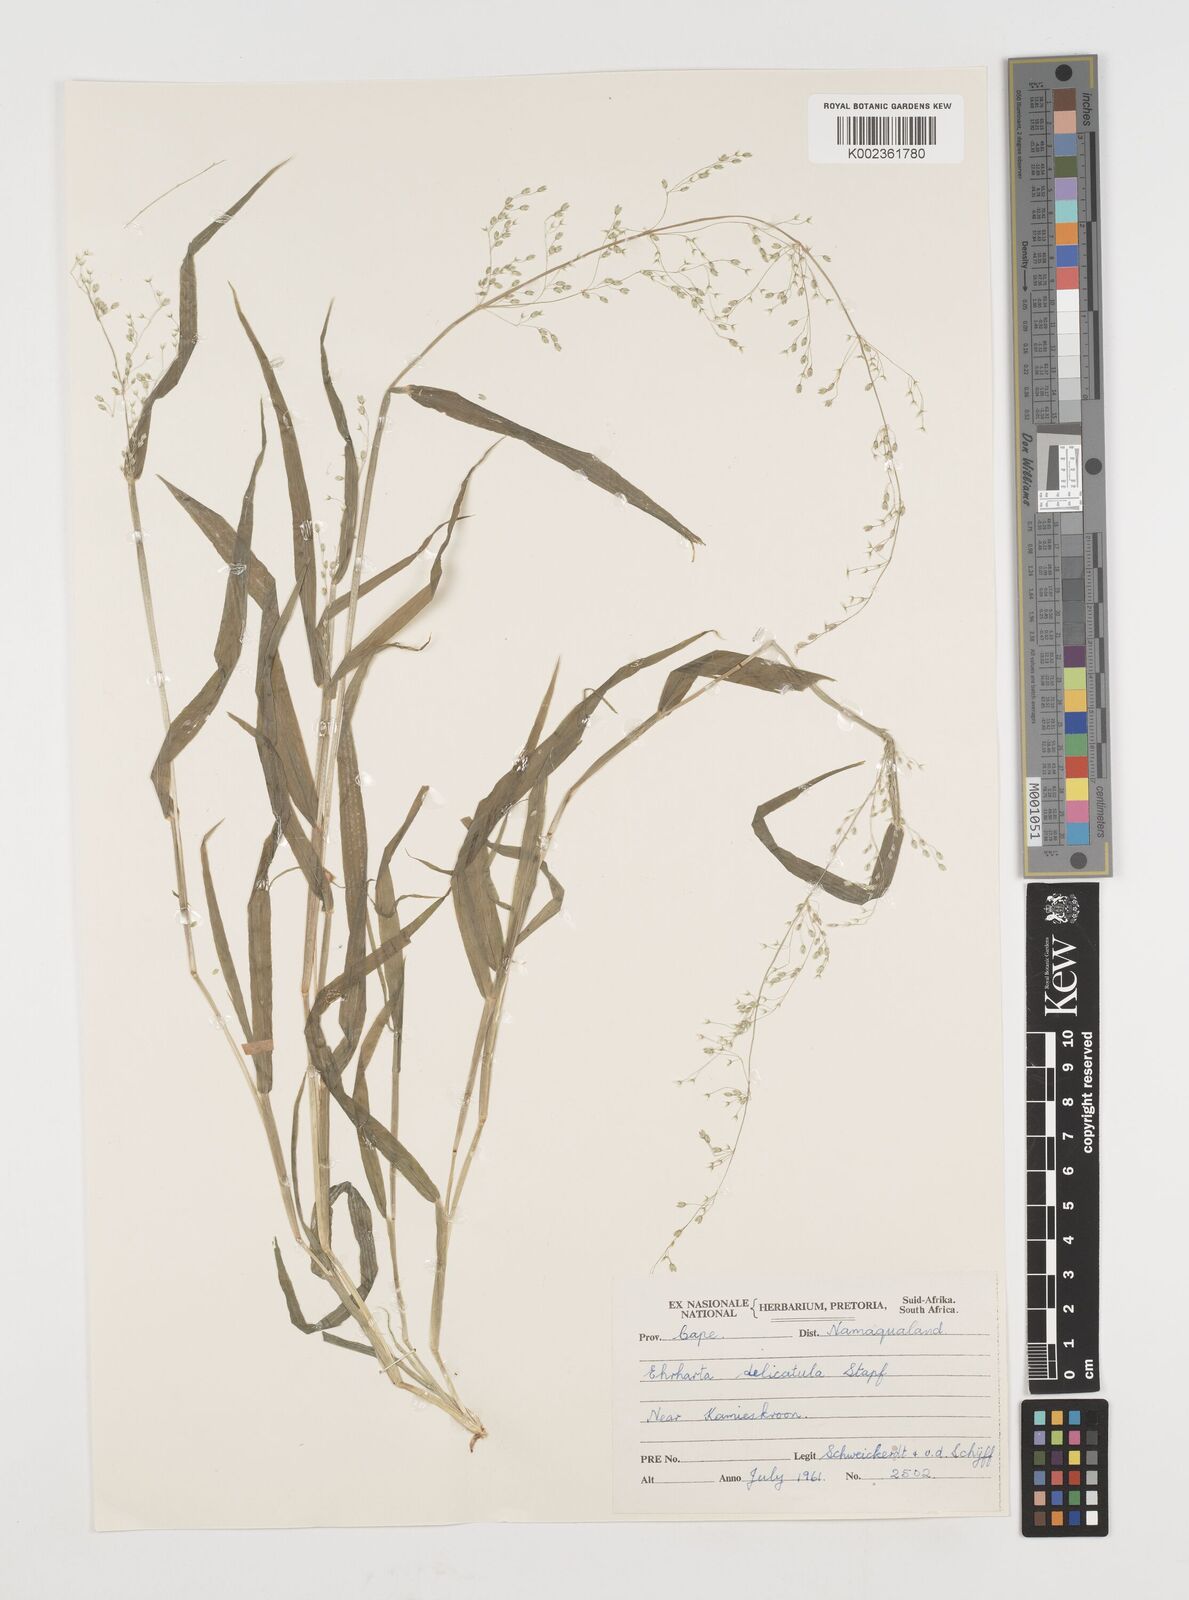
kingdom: Plantae
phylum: Tracheophyta
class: Liliopsida
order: Poales
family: Poaceae
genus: Ehrharta
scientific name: Ehrharta delicatula
